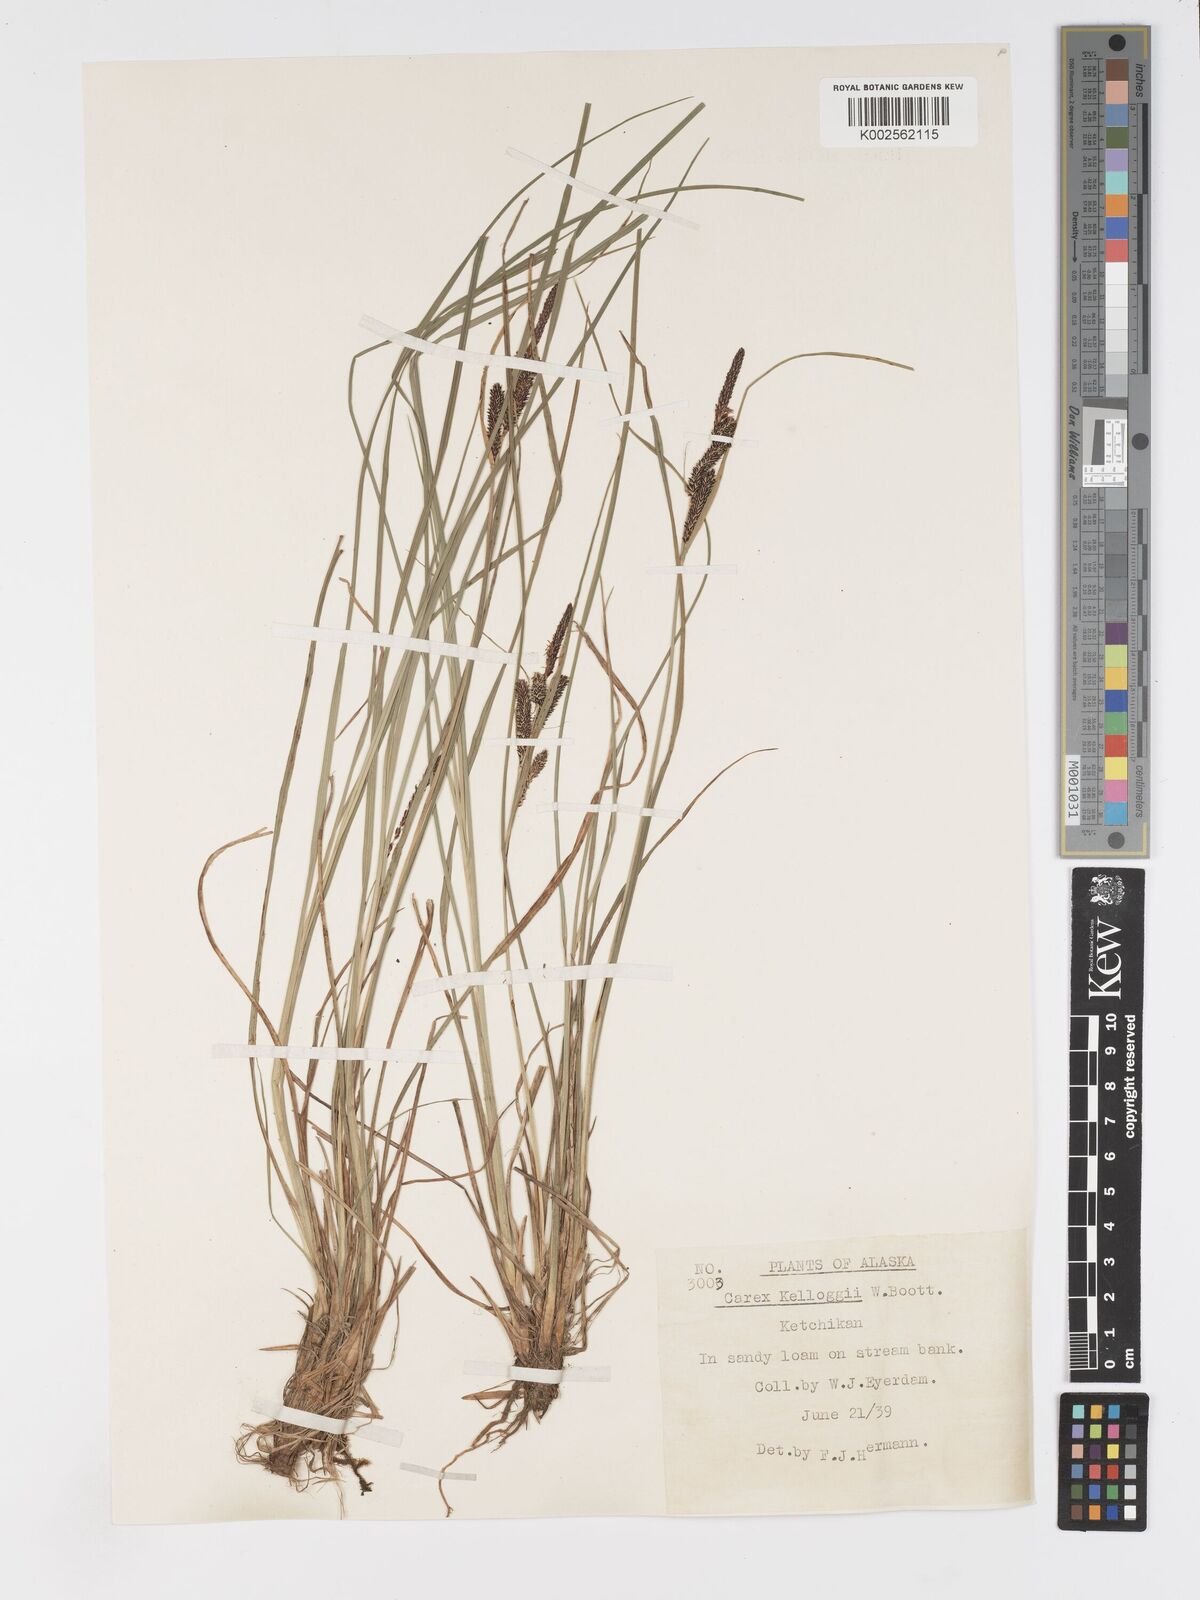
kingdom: Plantae
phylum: Tracheophyta
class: Liliopsida
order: Poales
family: Cyperaceae
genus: Carex
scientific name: Carex kelloggii
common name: Kellogg's sedge
